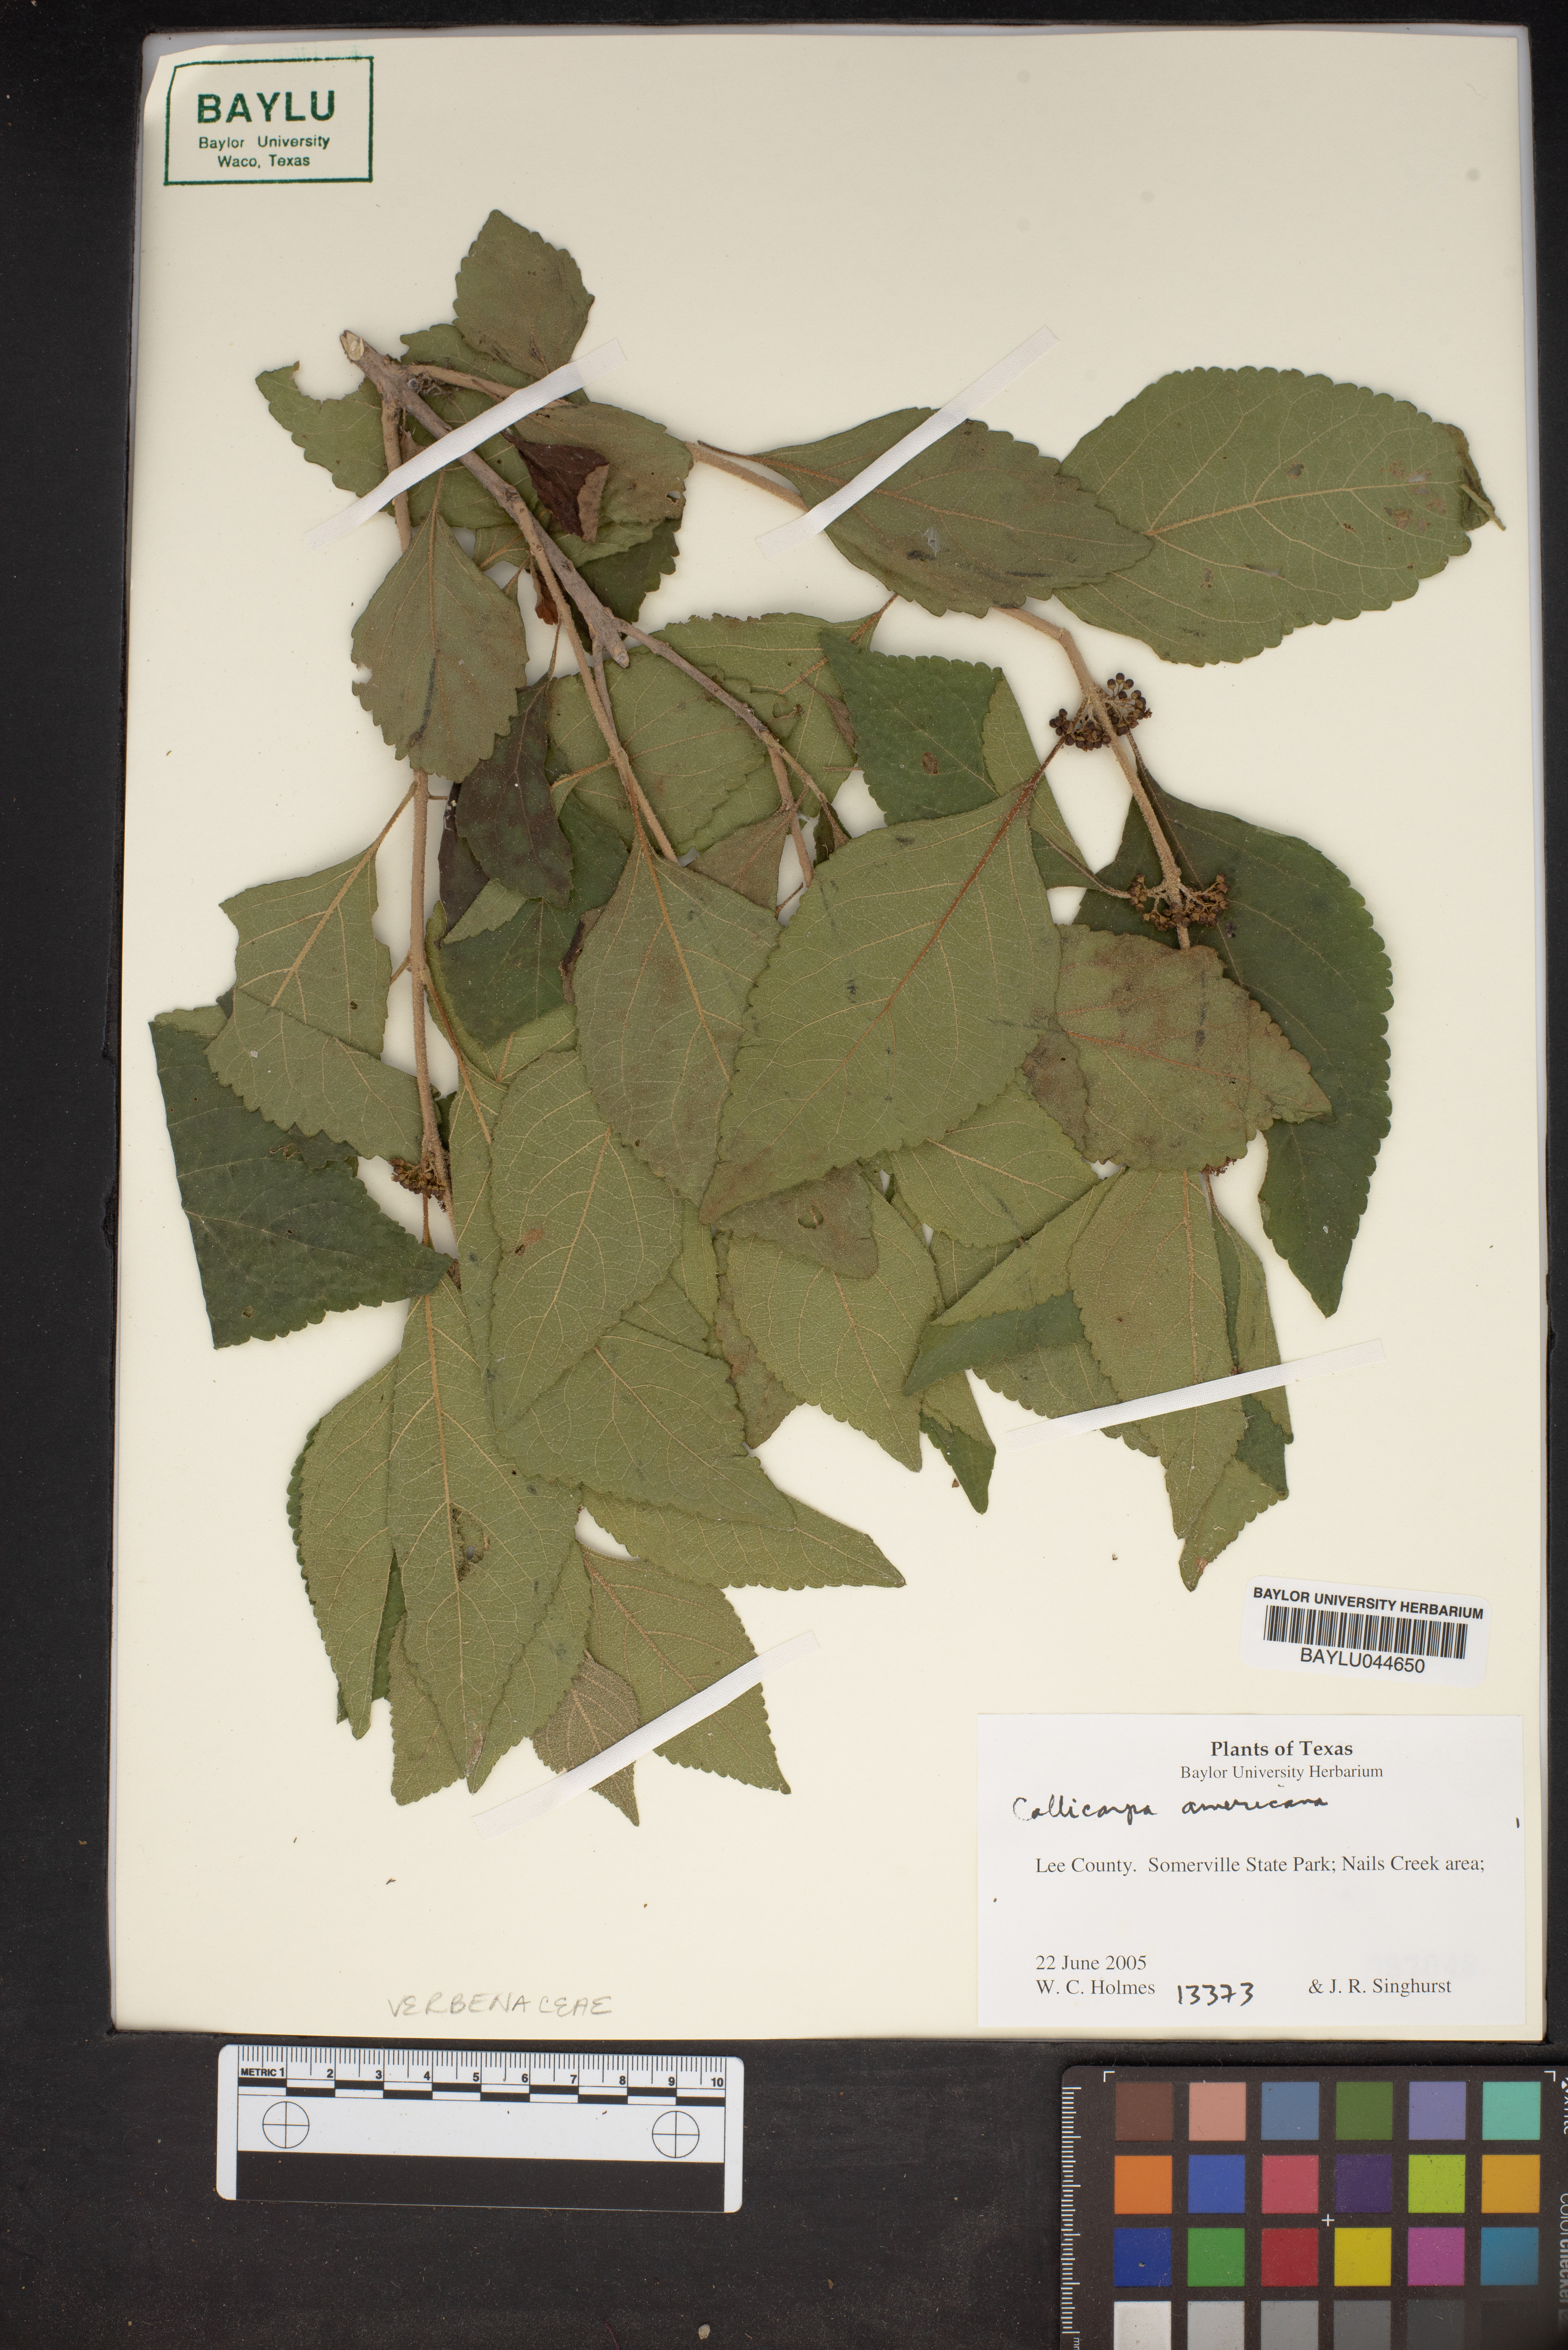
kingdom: Plantae
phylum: Tracheophyta
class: Magnoliopsida
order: Lamiales
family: Lamiaceae
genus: Callicarpa
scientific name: Callicarpa americana
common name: American beautyberry
